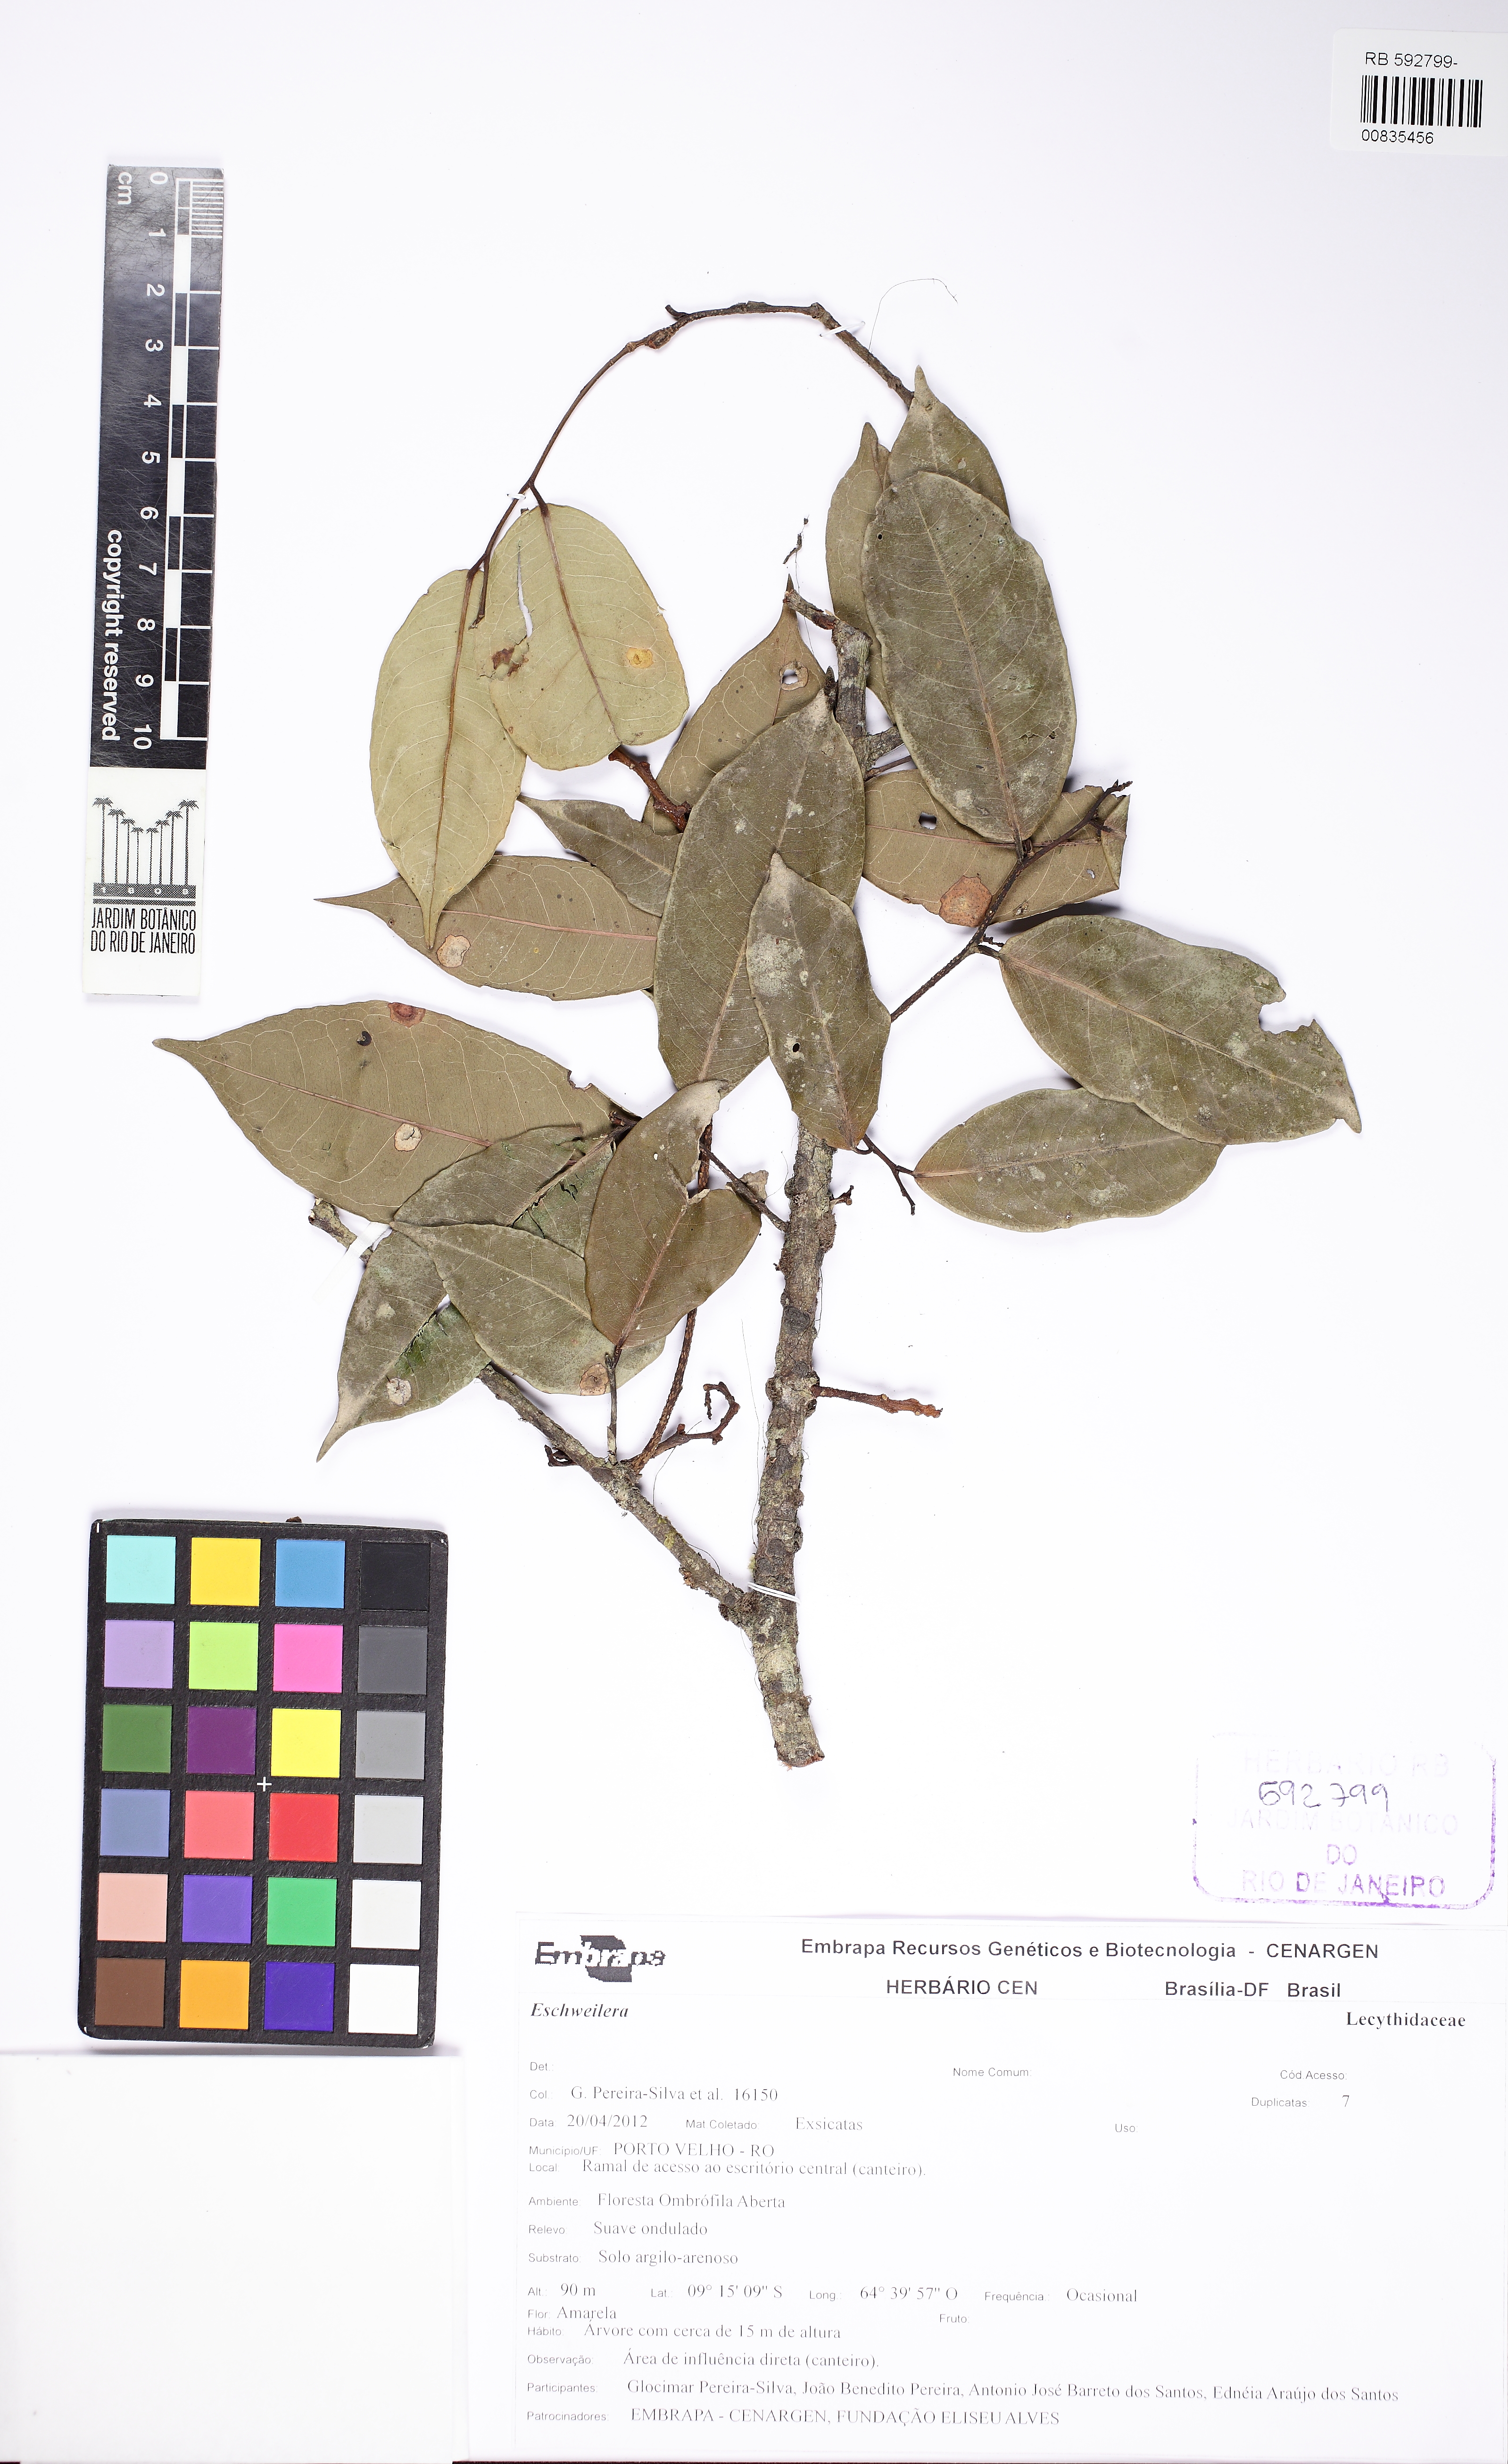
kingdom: Plantae
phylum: Tracheophyta
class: Magnoliopsida
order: Ericales
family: Lecythidaceae
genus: Eschweilera
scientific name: Eschweilera amazonica
